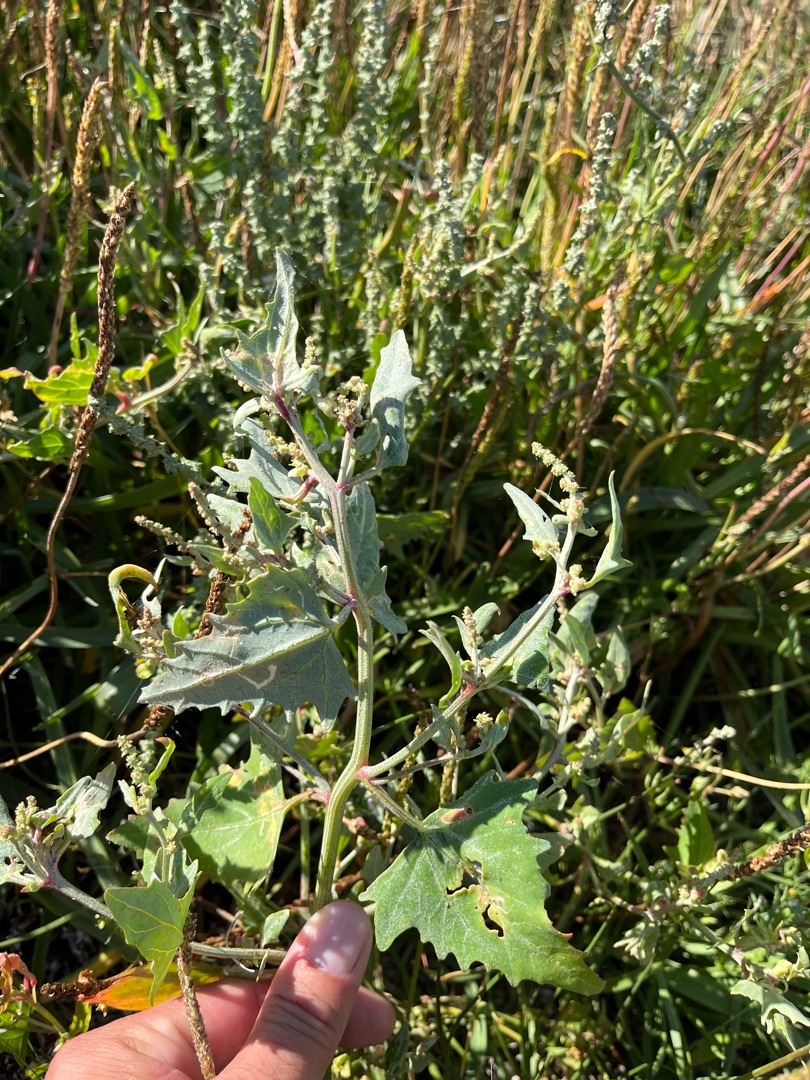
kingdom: Plantae
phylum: Tracheophyta
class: Magnoliopsida
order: Caryophyllales
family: Amaranthaceae
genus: Atriplex
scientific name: Atriplex prostrata
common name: Spyd-mælde
